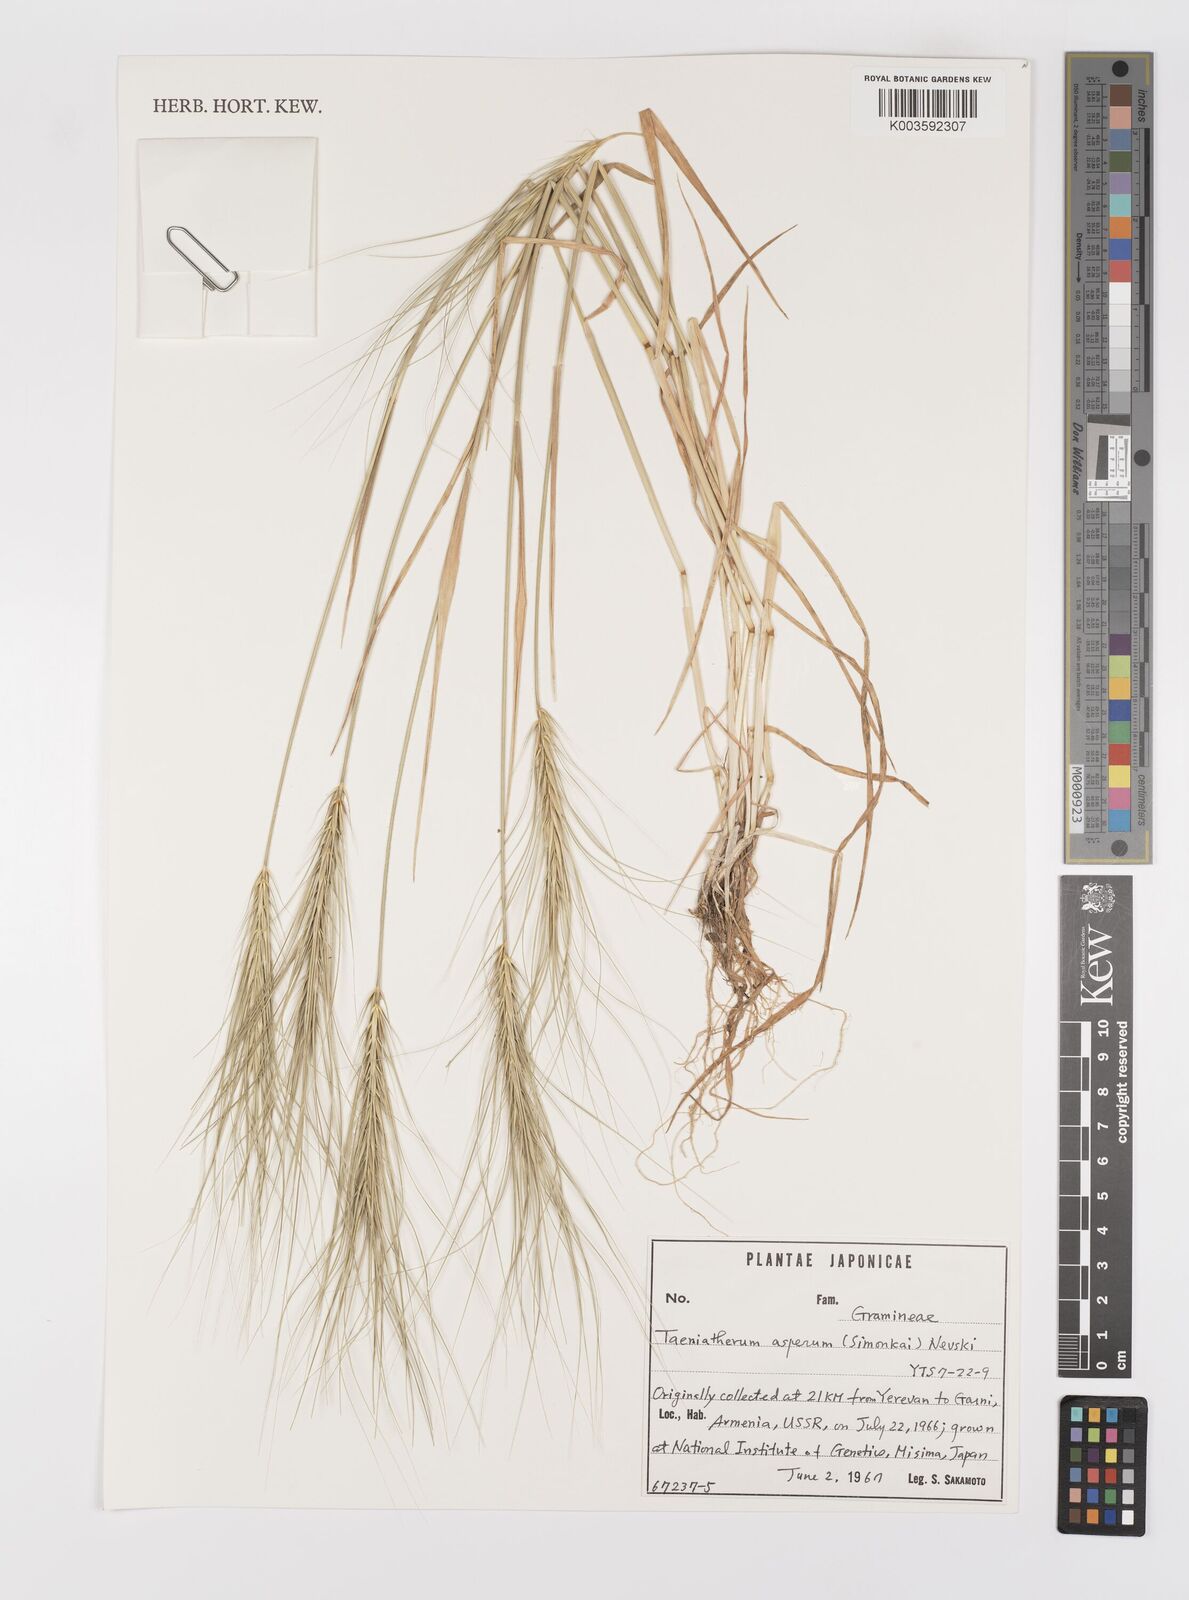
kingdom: Plantae
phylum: Tracheophyta
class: Liliopsida
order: Poales
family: Poaceae
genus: Taeniatherum
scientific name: Taeniatherum caput-medusae
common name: Medusahead
